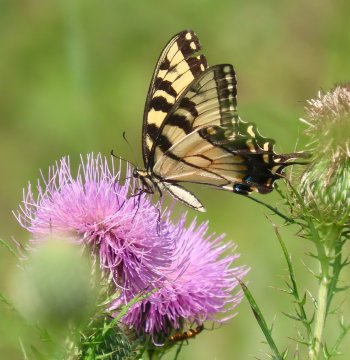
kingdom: Animalia
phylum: Arthropoda
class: Insecta
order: Lepidoptera
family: Papilionidae
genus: Pterourus
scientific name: Pterourus glaucus
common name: Eastern Tiger Swallowtail
